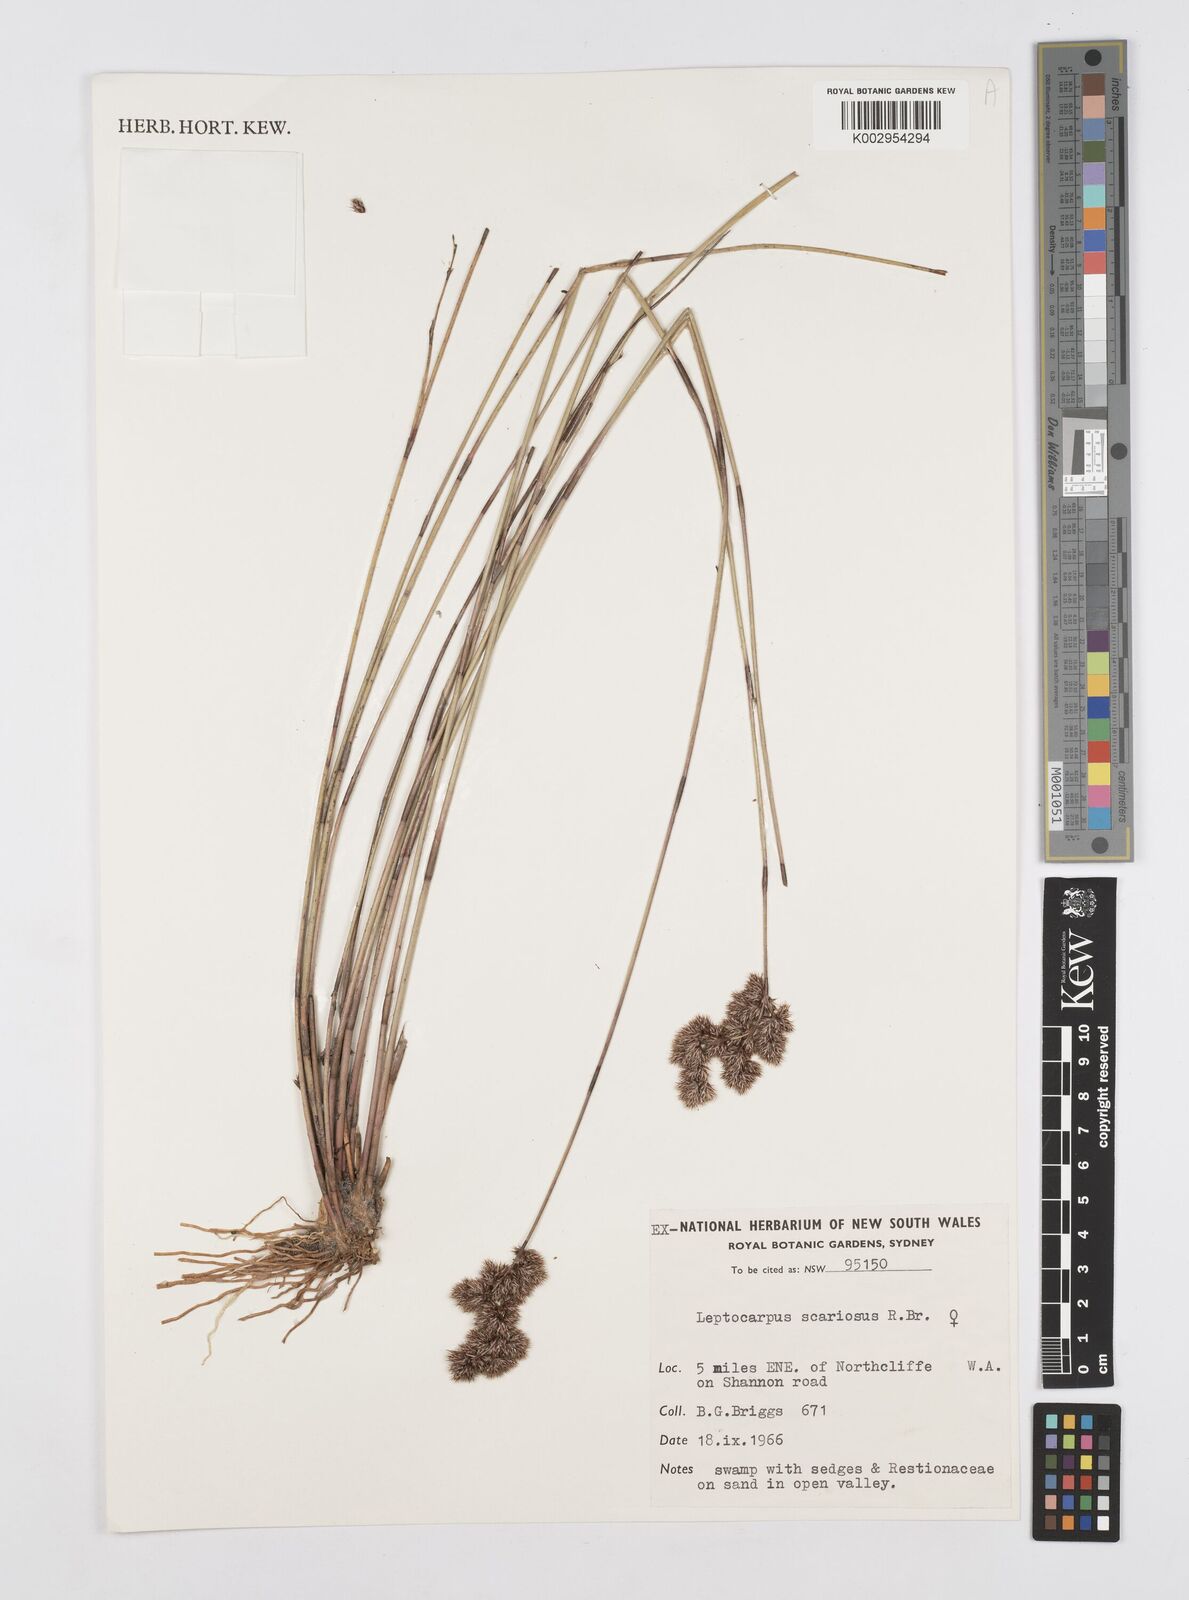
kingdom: Plantae
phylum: Tracheophyta
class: Liliopsida
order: Poales
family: Restionaceae
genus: Leptocarpus
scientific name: Leptocarpus scariosus
